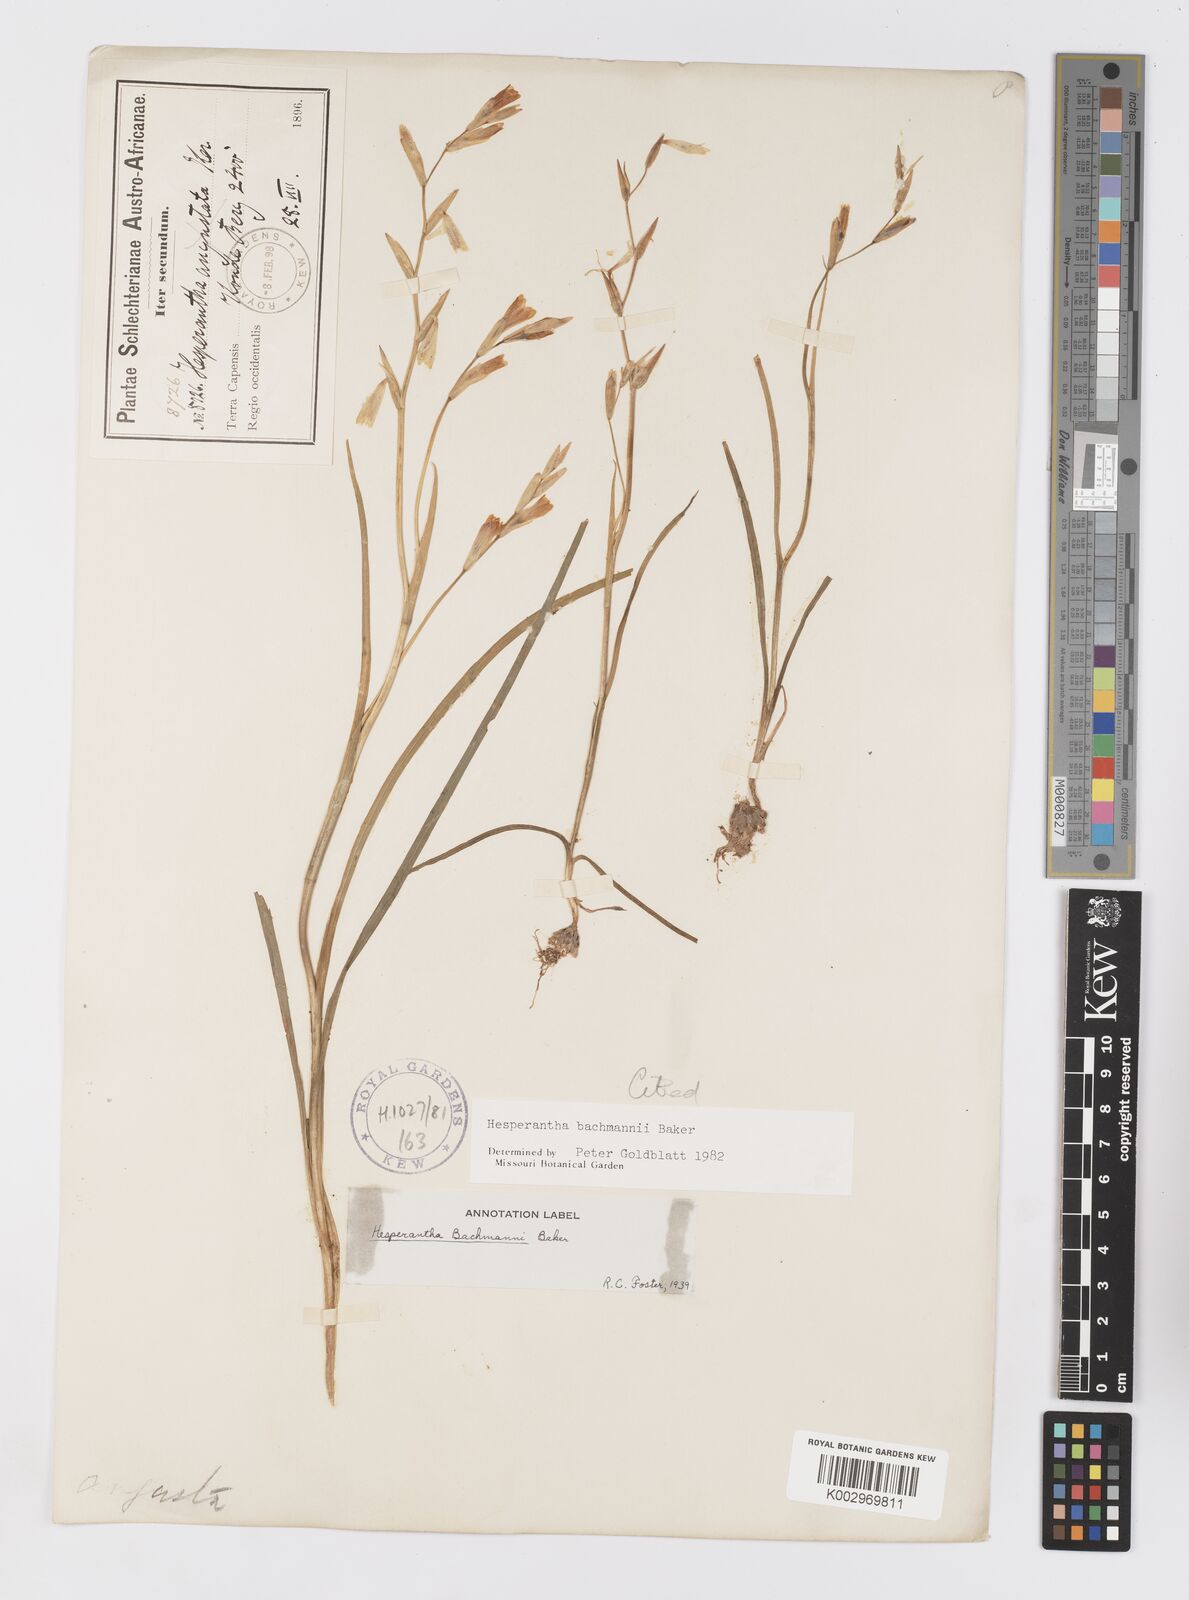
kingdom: Plantae
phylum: Tracheophyta
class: Liliopsida
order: Asparagales
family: Iridaceae
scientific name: Iridaceae
